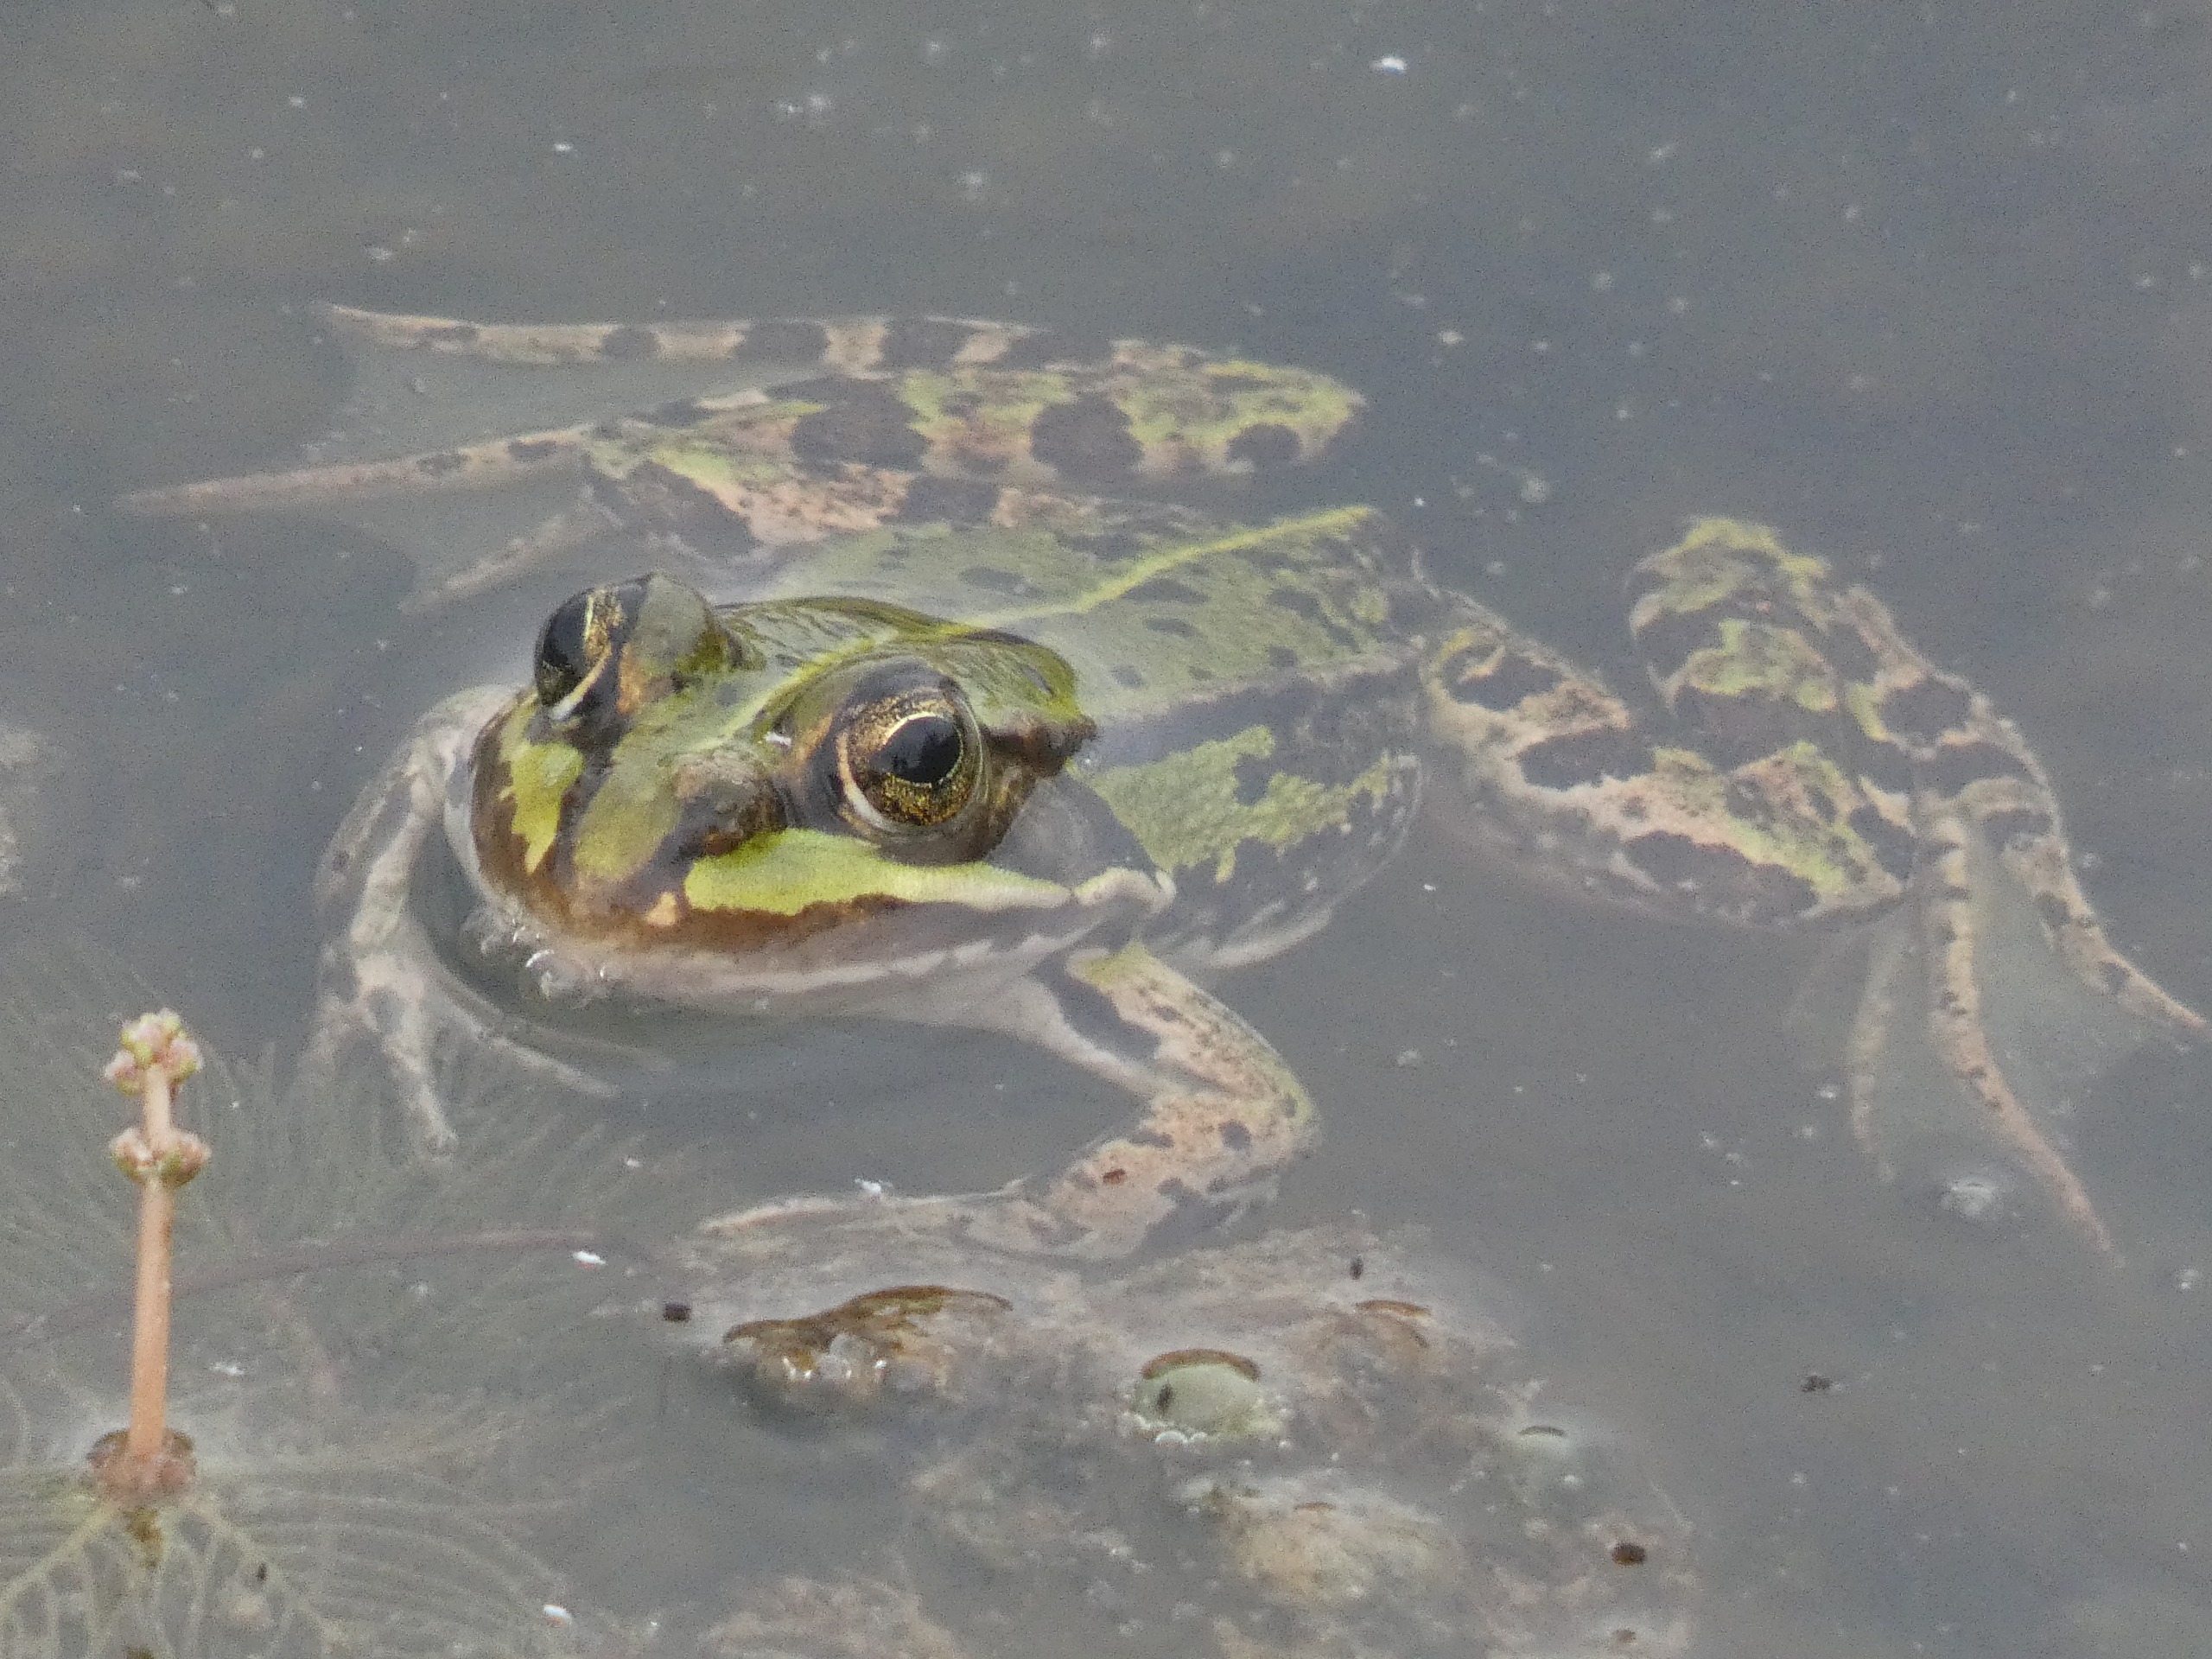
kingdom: Animalia
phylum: Chordata
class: Amphibia
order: Anura
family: Ranidae
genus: Pelophylax
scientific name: Pelophylax lessonae
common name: Grøn frø
